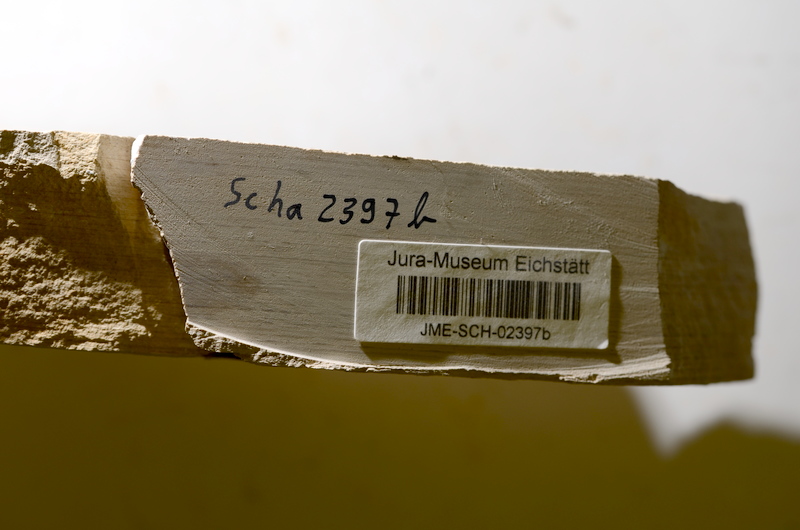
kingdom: Animalia
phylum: Chordata
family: Ascalaboidae
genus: Tharsis
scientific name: Tharsis dubius
